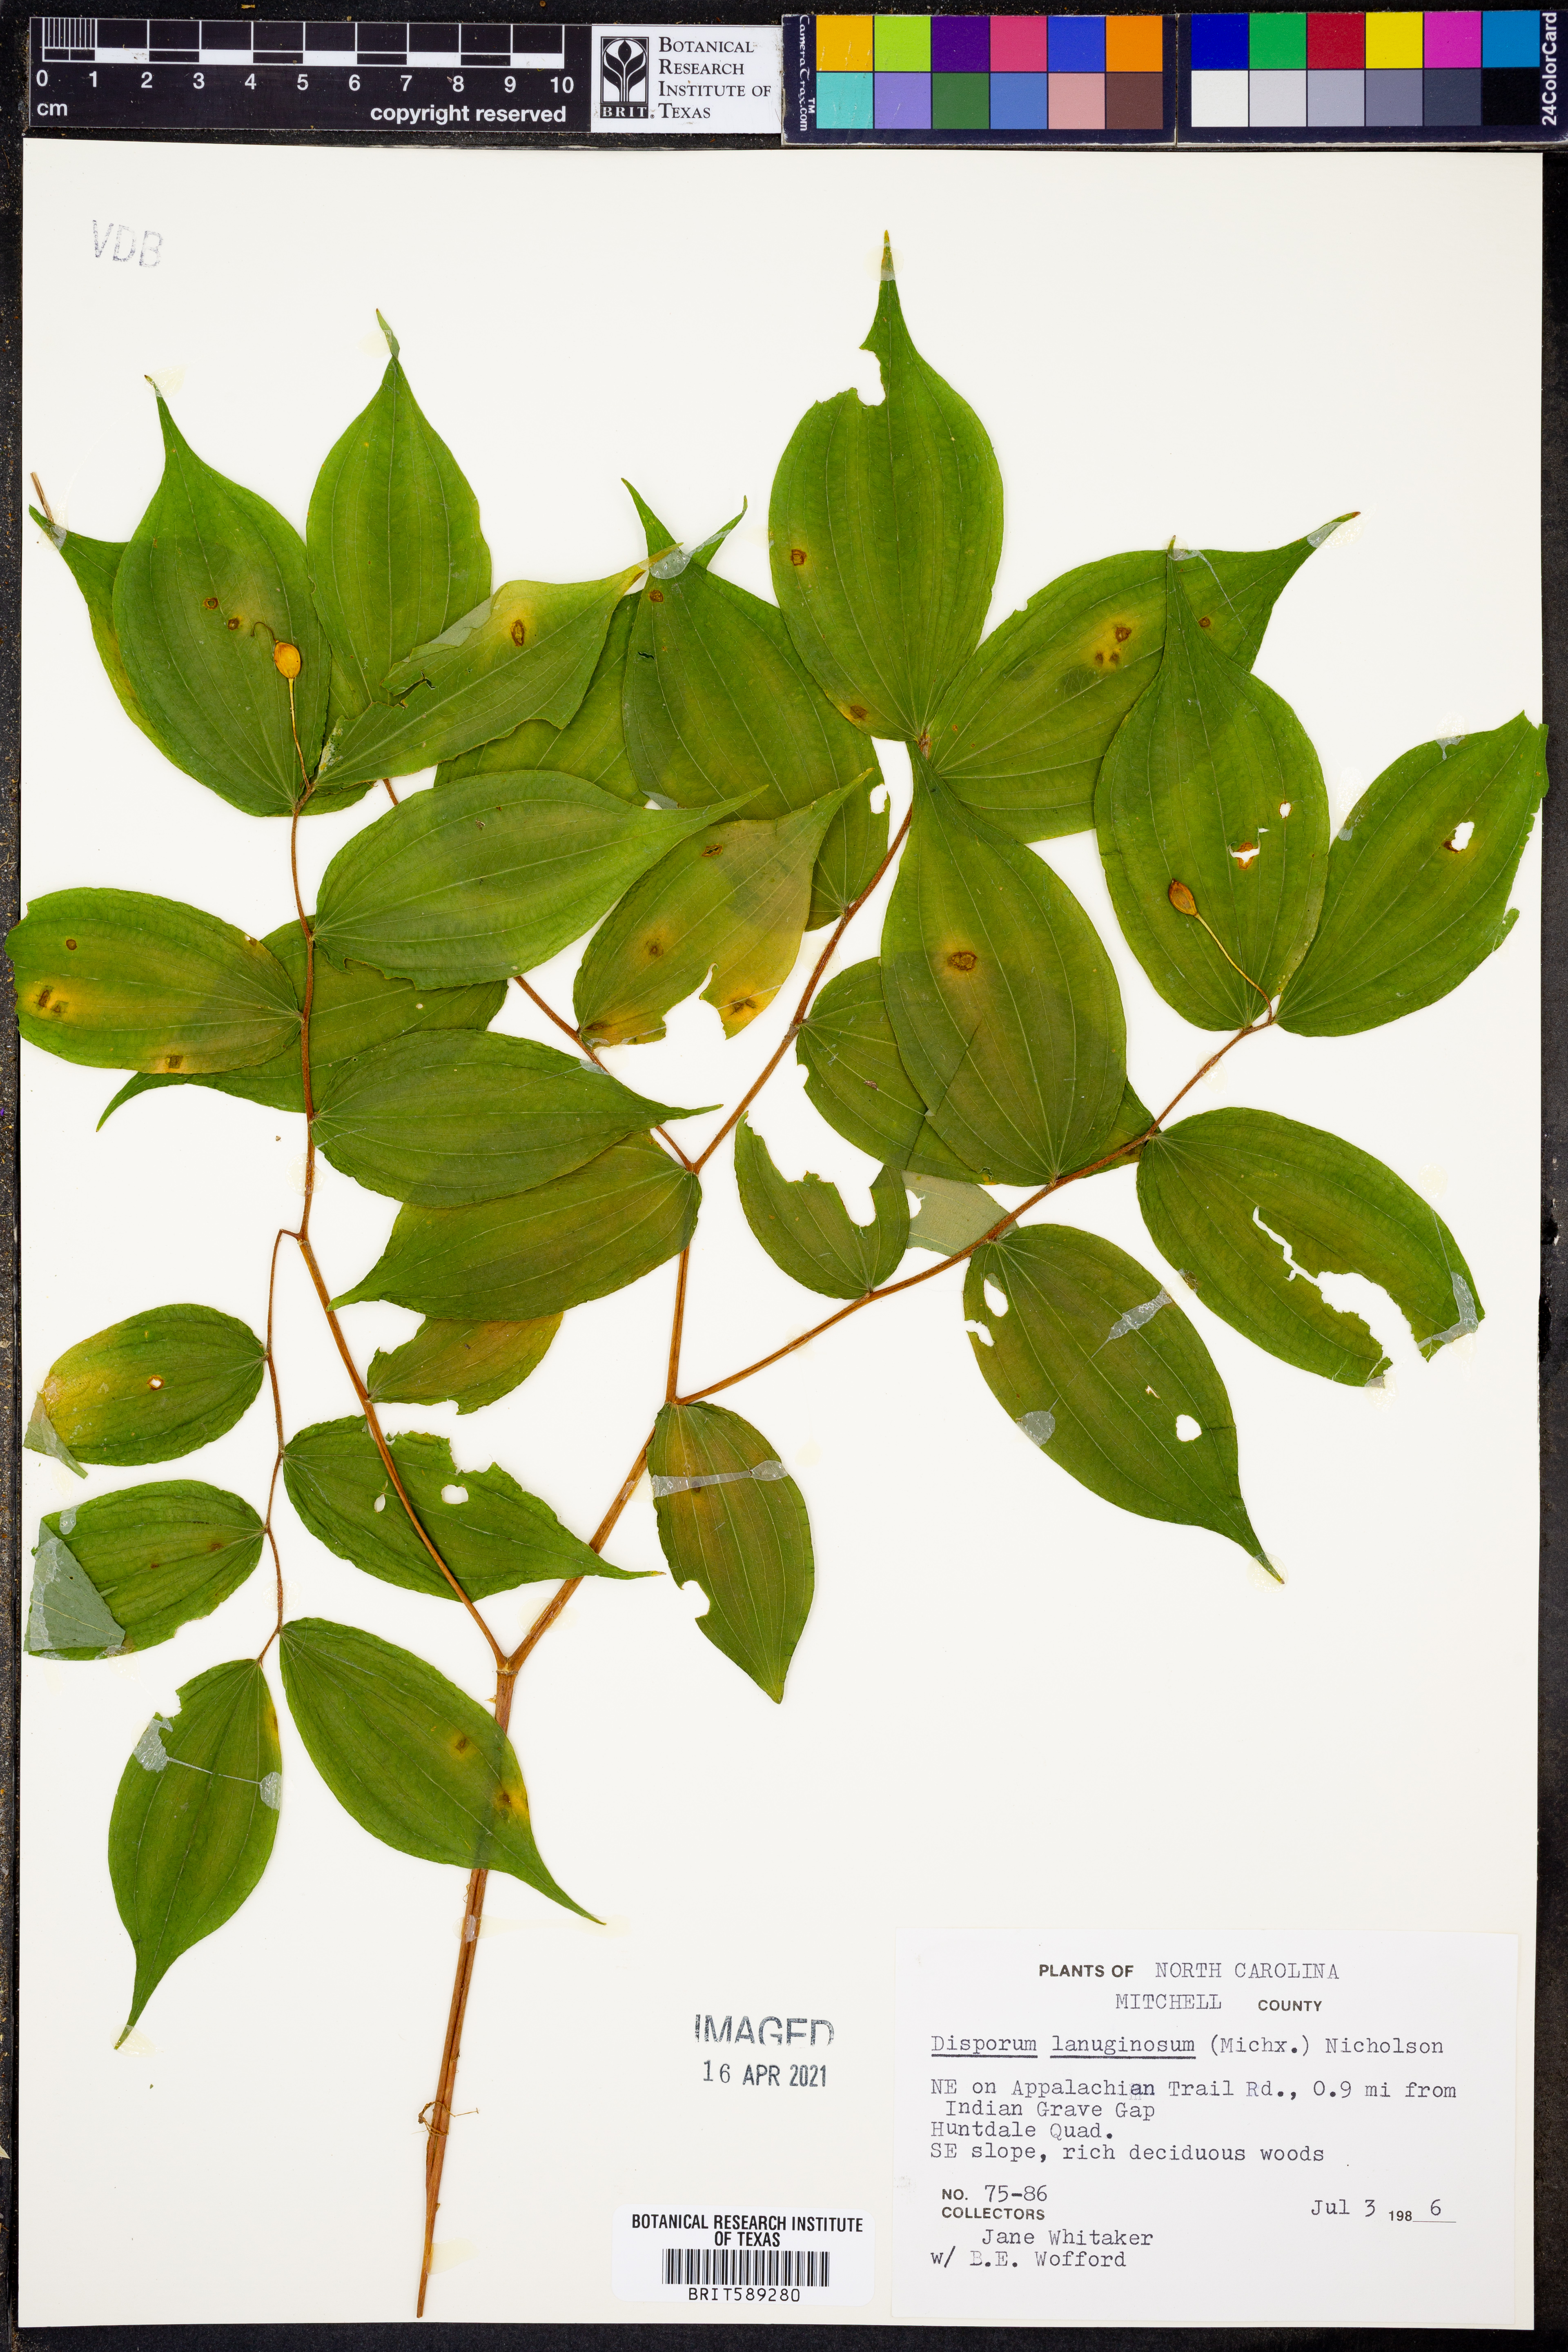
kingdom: Plantae
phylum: Tracheophyta
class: Liliopsida
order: Liliales
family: Liliaceae
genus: Prosartes
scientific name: Prosartes lanuginosa
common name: Hairy mandarin
